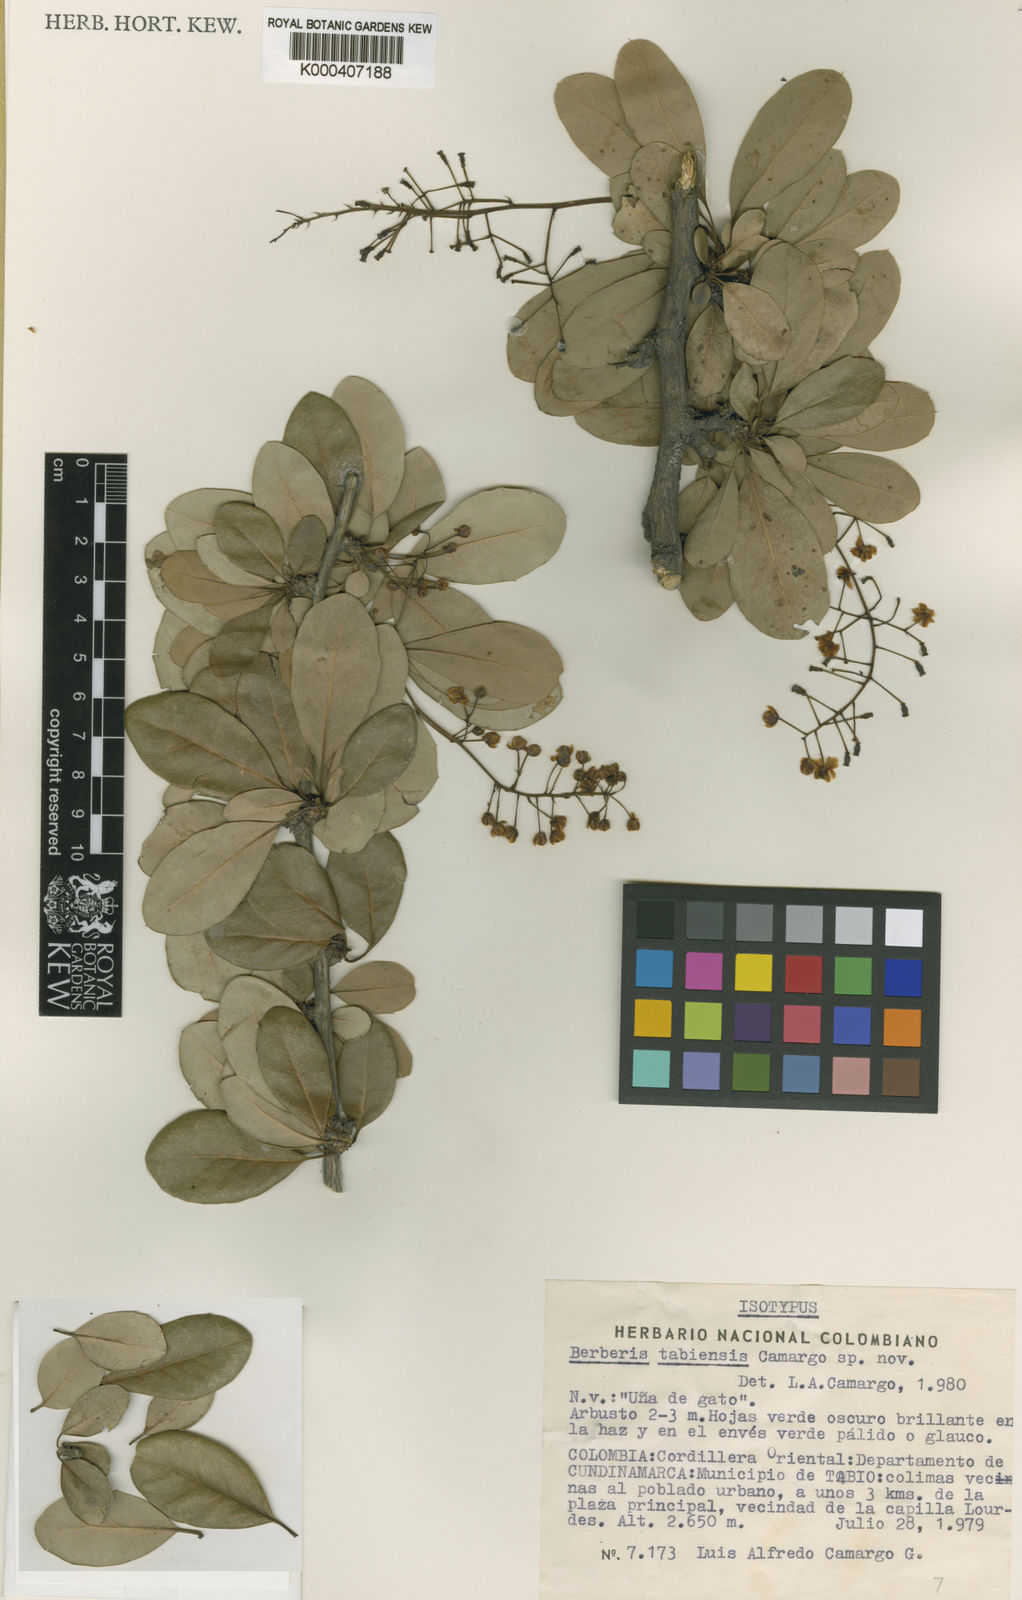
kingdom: Plantae
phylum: Tracheophyta
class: Magnoliopsida
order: Ranunculales
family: Berberidaceae
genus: Berberis
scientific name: Berberis tabiensis
